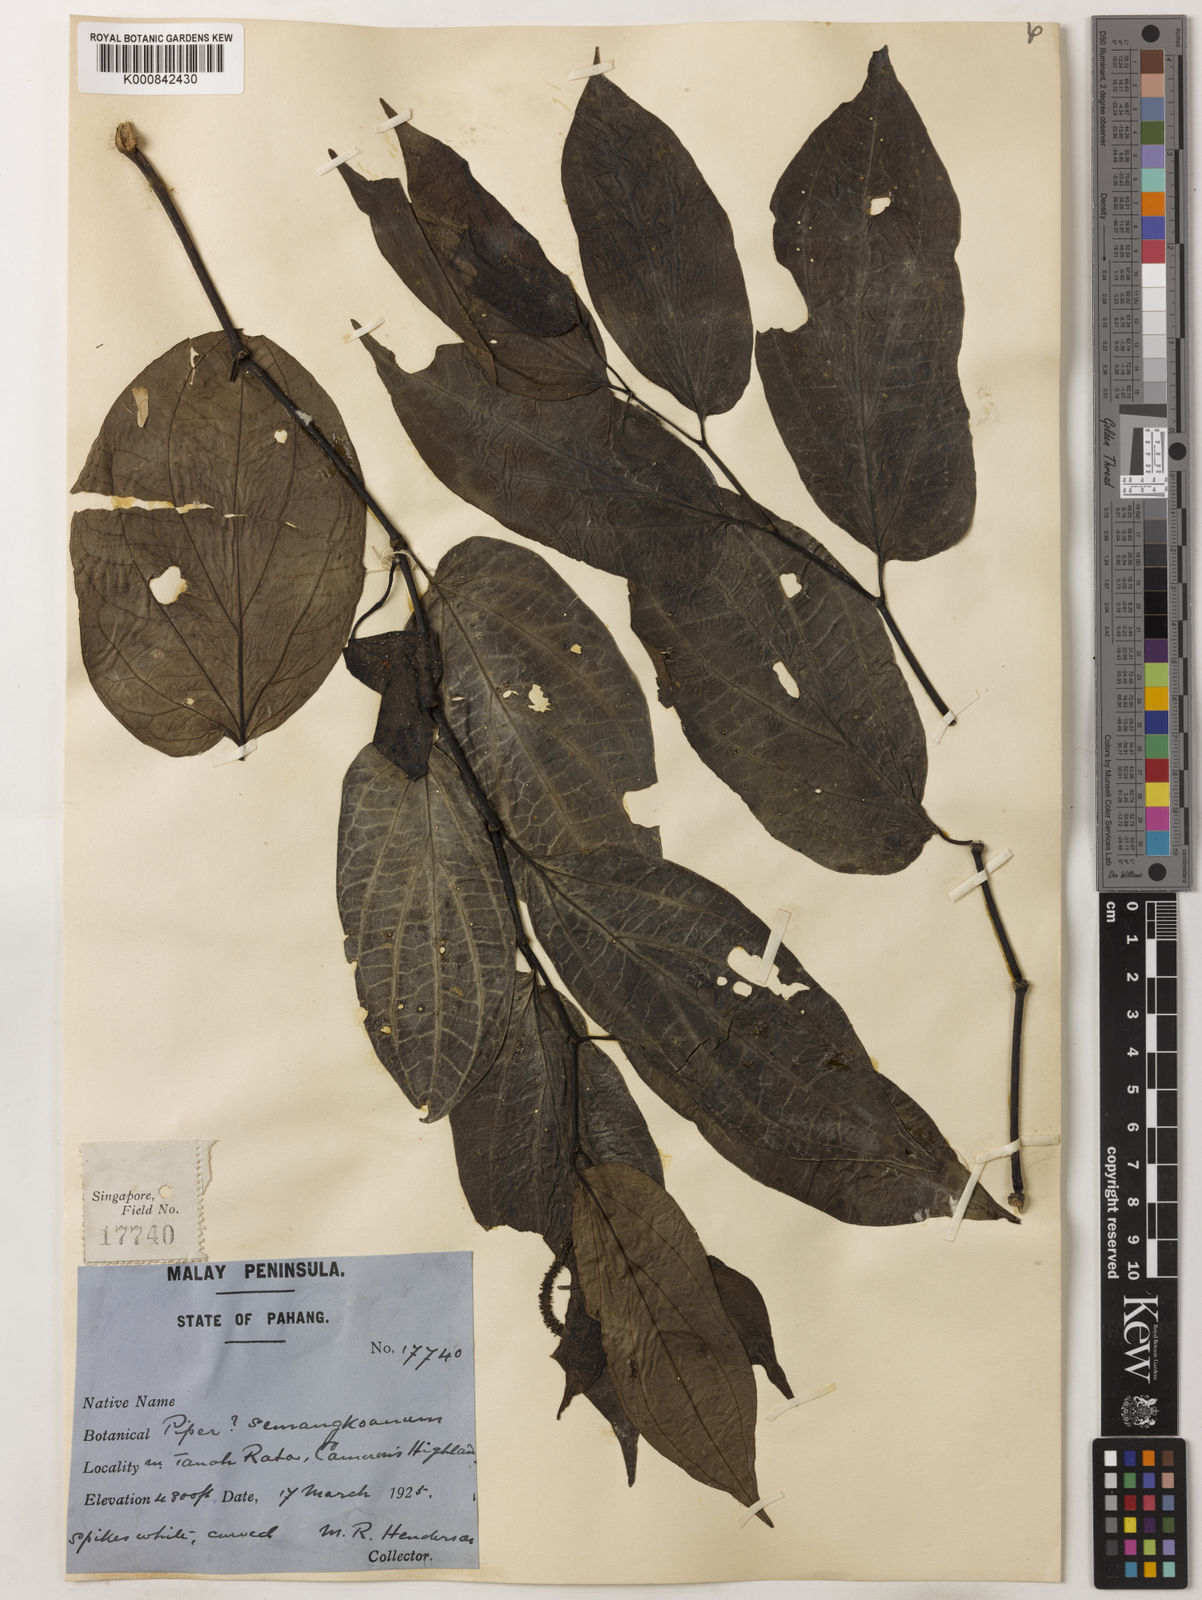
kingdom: Plantae
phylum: Tracheophyta
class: Magnoliopsida
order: Piperales
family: Piperaceae
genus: Piper
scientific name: Piper semangkoanum
